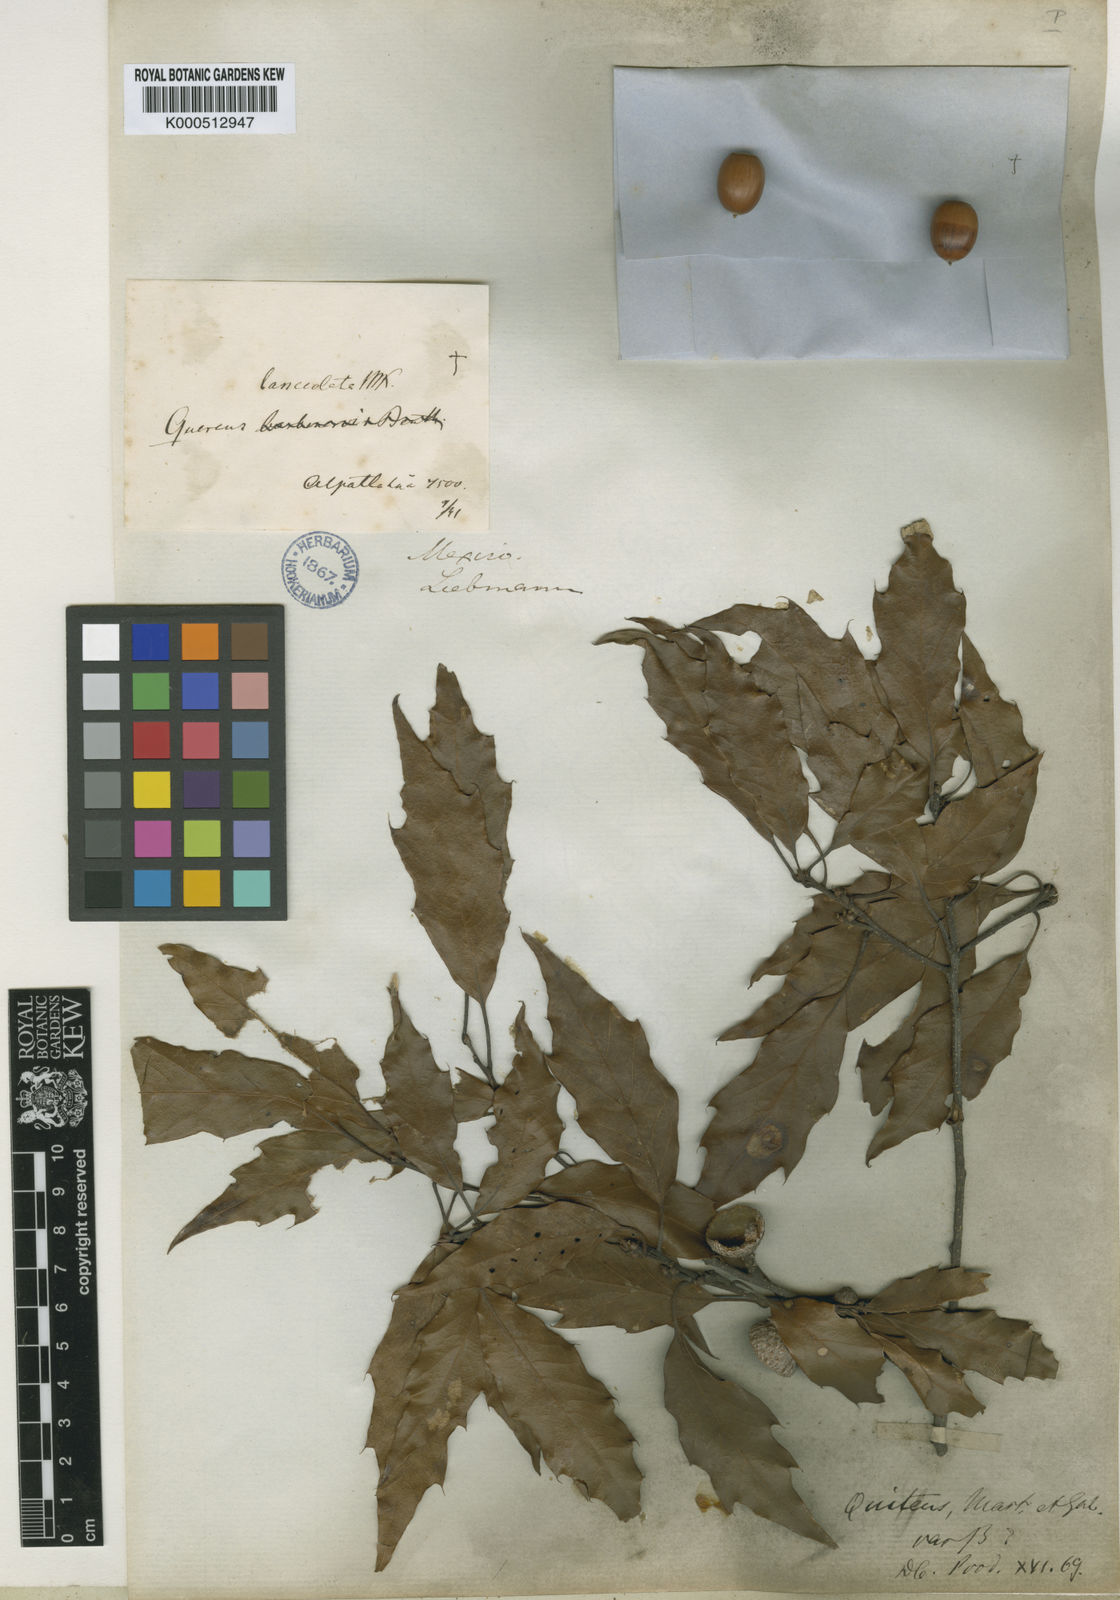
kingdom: Plantae
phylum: Tracheophyta
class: Magnoliopsida
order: Fagales
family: Fagaceae
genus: Quercus
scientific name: Quercus laurina
